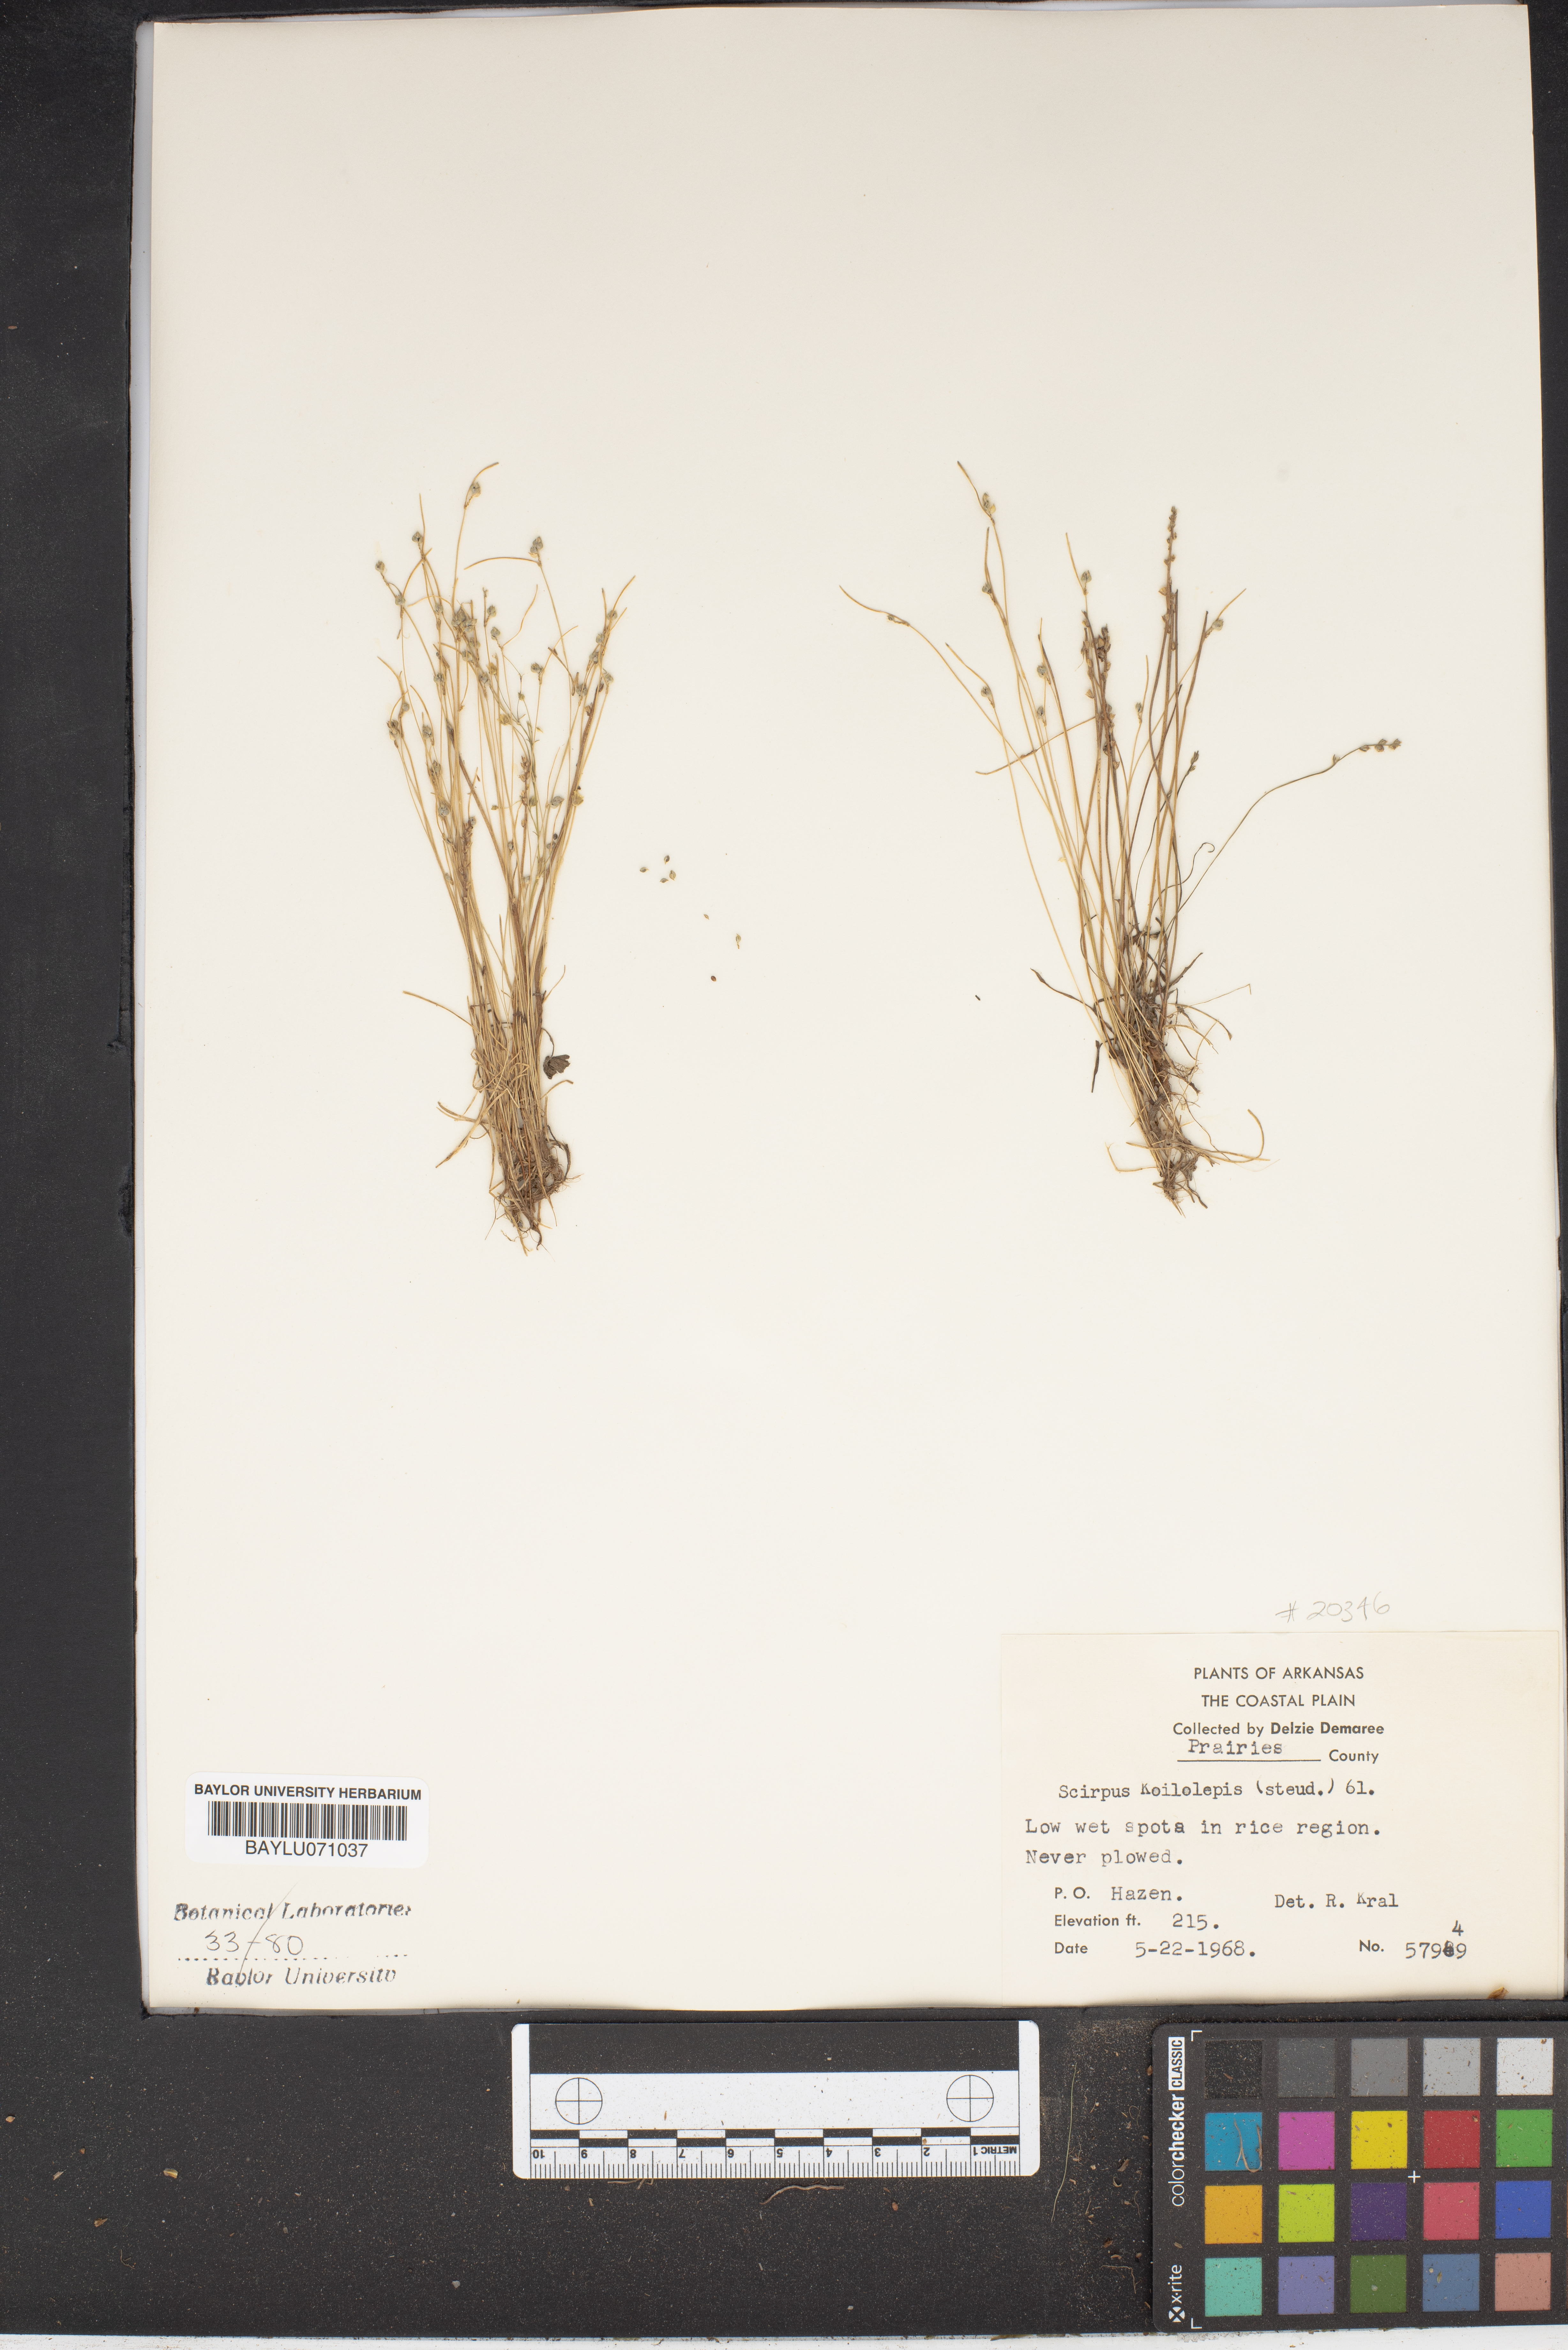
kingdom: Plantae
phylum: Tracheophyta
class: Liliopsida
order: Poales
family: Cyperaceae
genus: Isolepis
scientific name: Isolepis carinata
